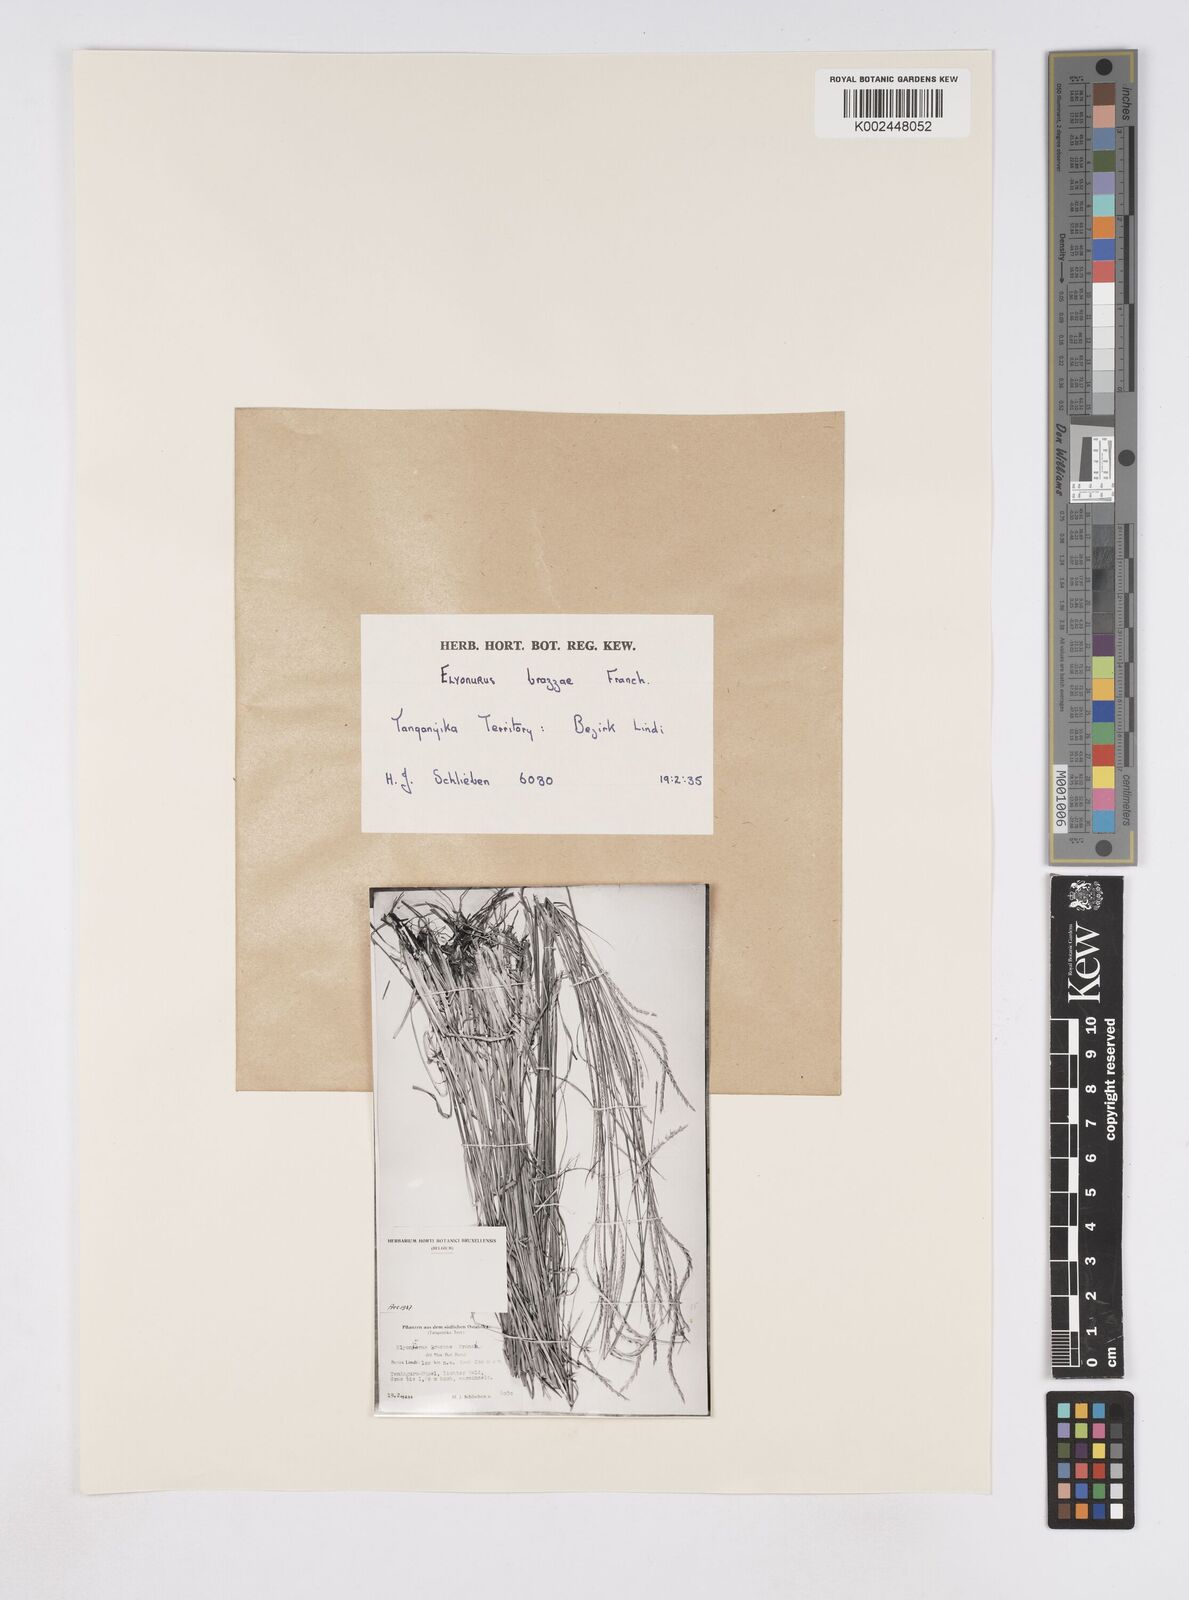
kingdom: Plantae
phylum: Tracheophyta
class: Liliopsida
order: Poales
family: Poaceae
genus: Elionurus
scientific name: Elionurus tripsacoides
